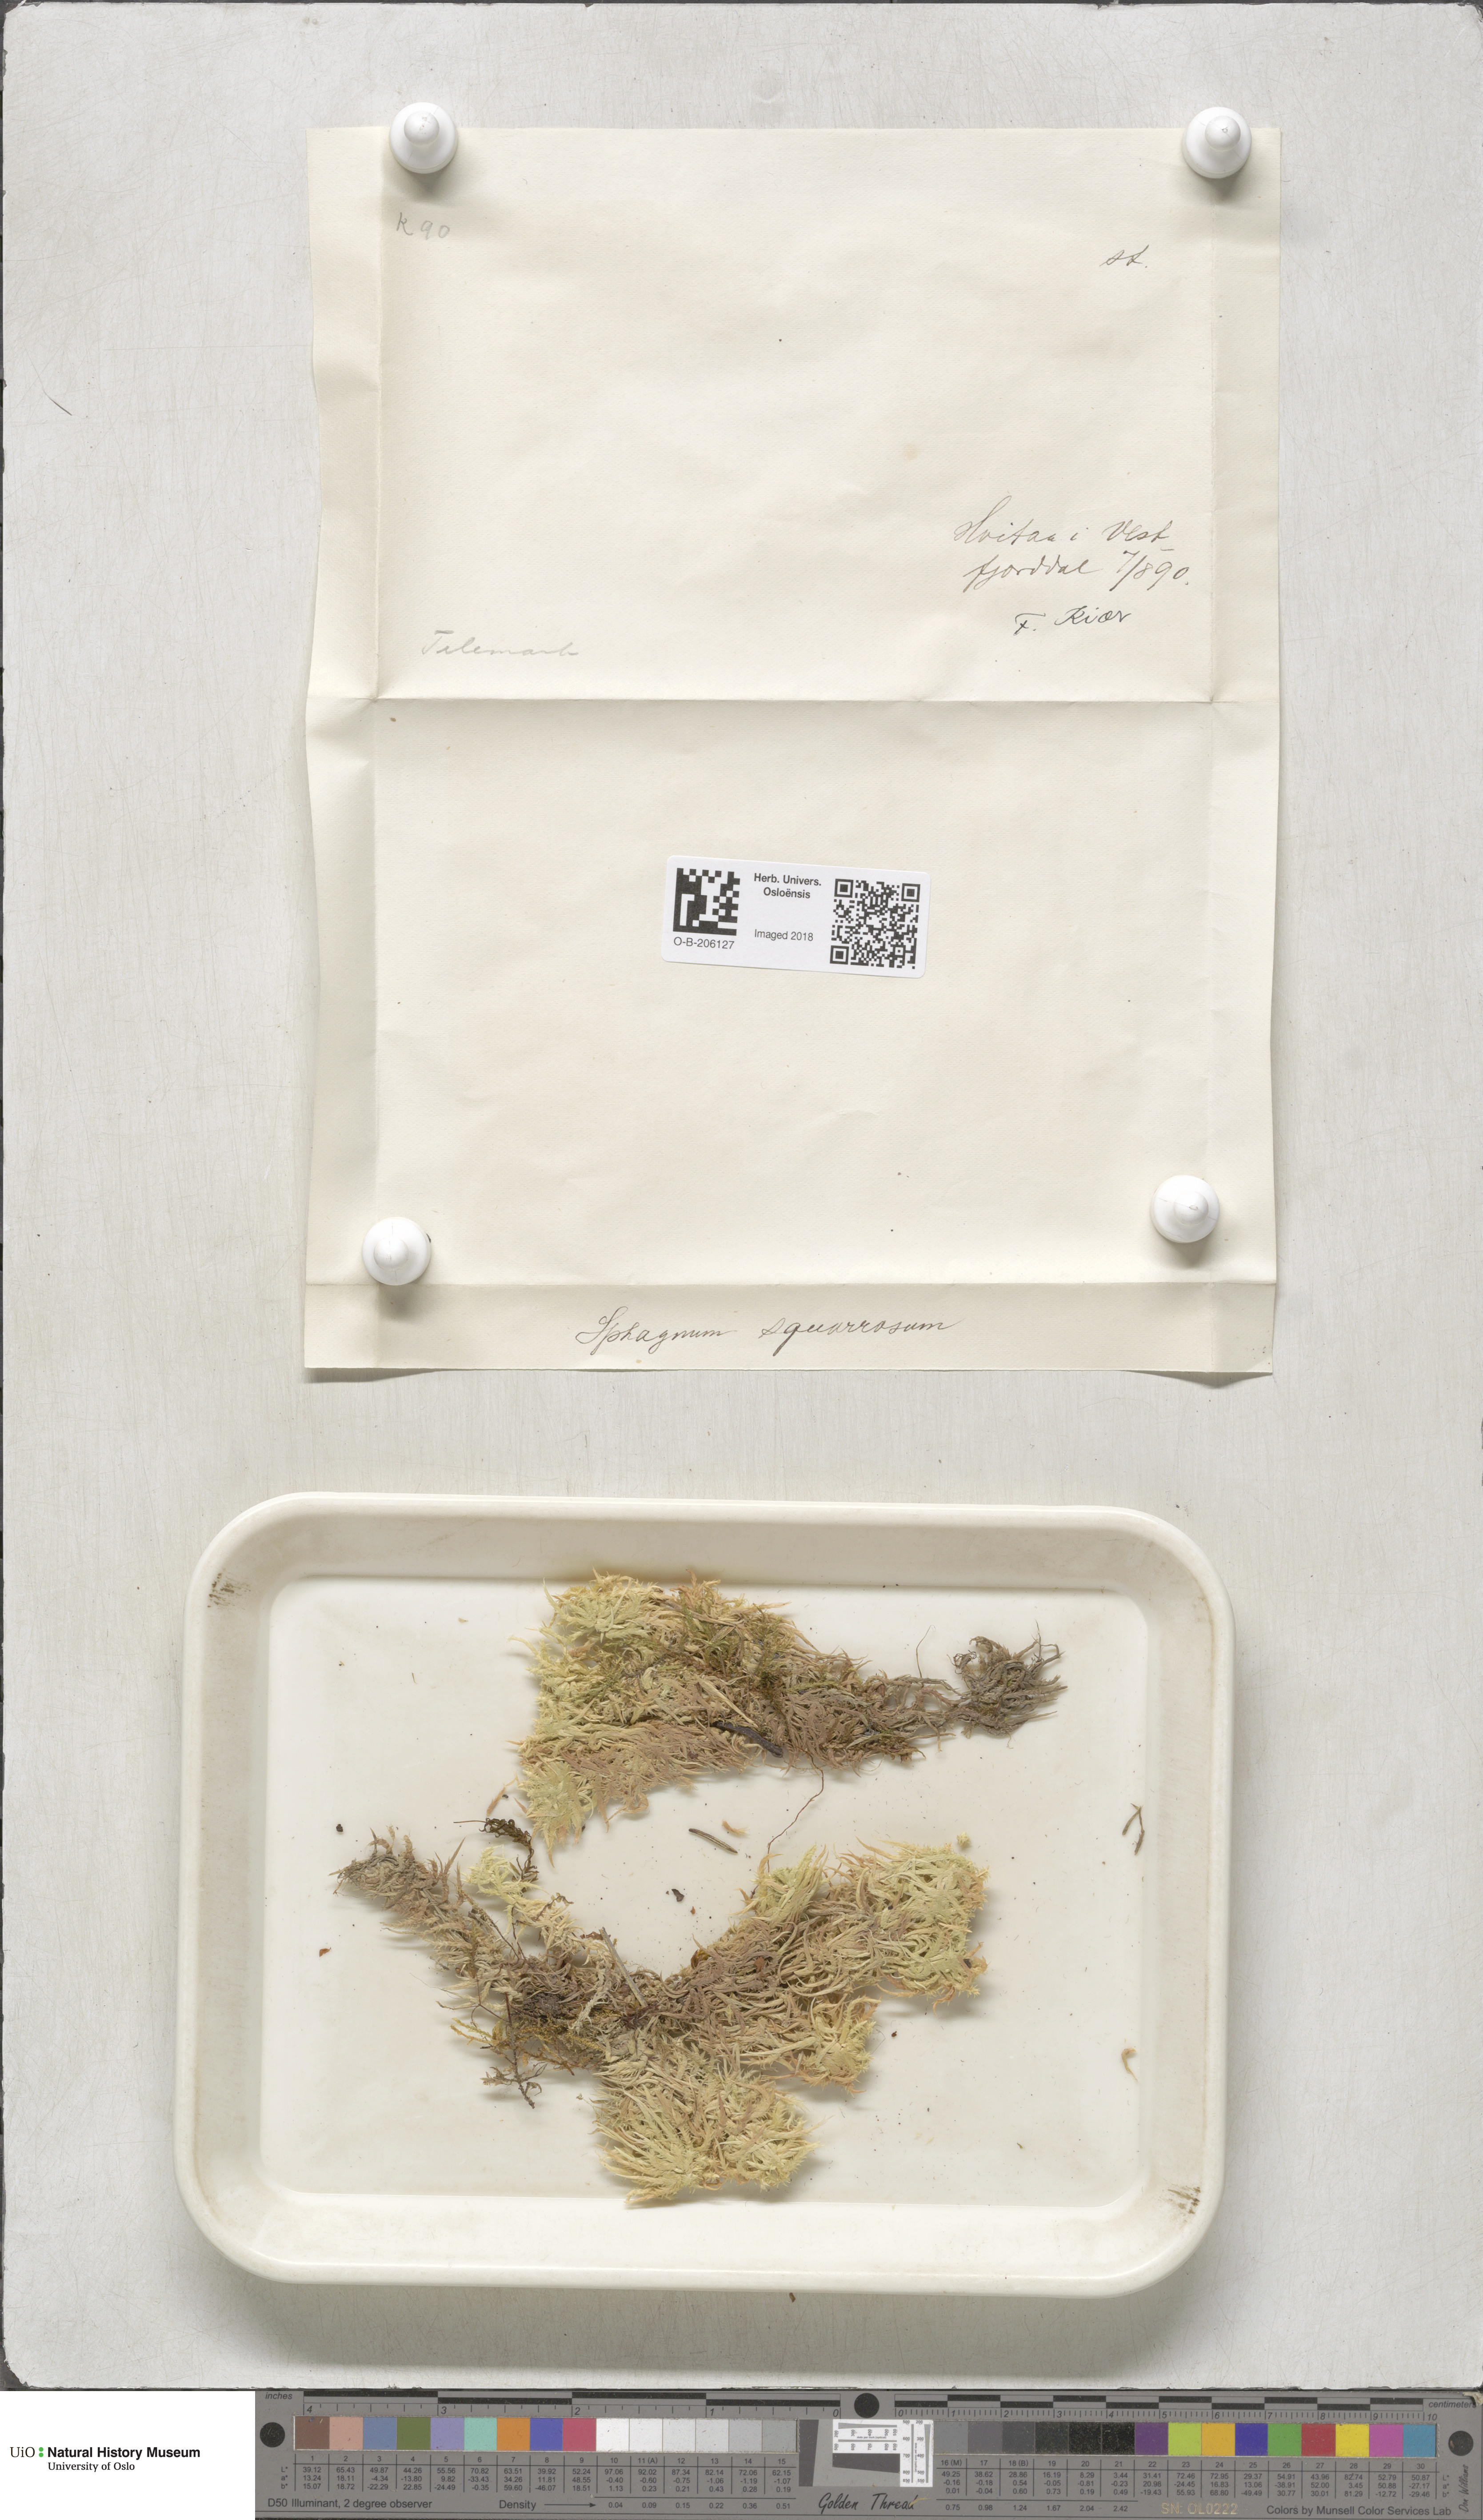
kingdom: Plantae
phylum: Bryophyta
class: Sphagnopsida
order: Sphagnales
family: Sphagnaceae
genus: Sphagnum
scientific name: Sphagnum squarrosum
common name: Shaggy peat moss
